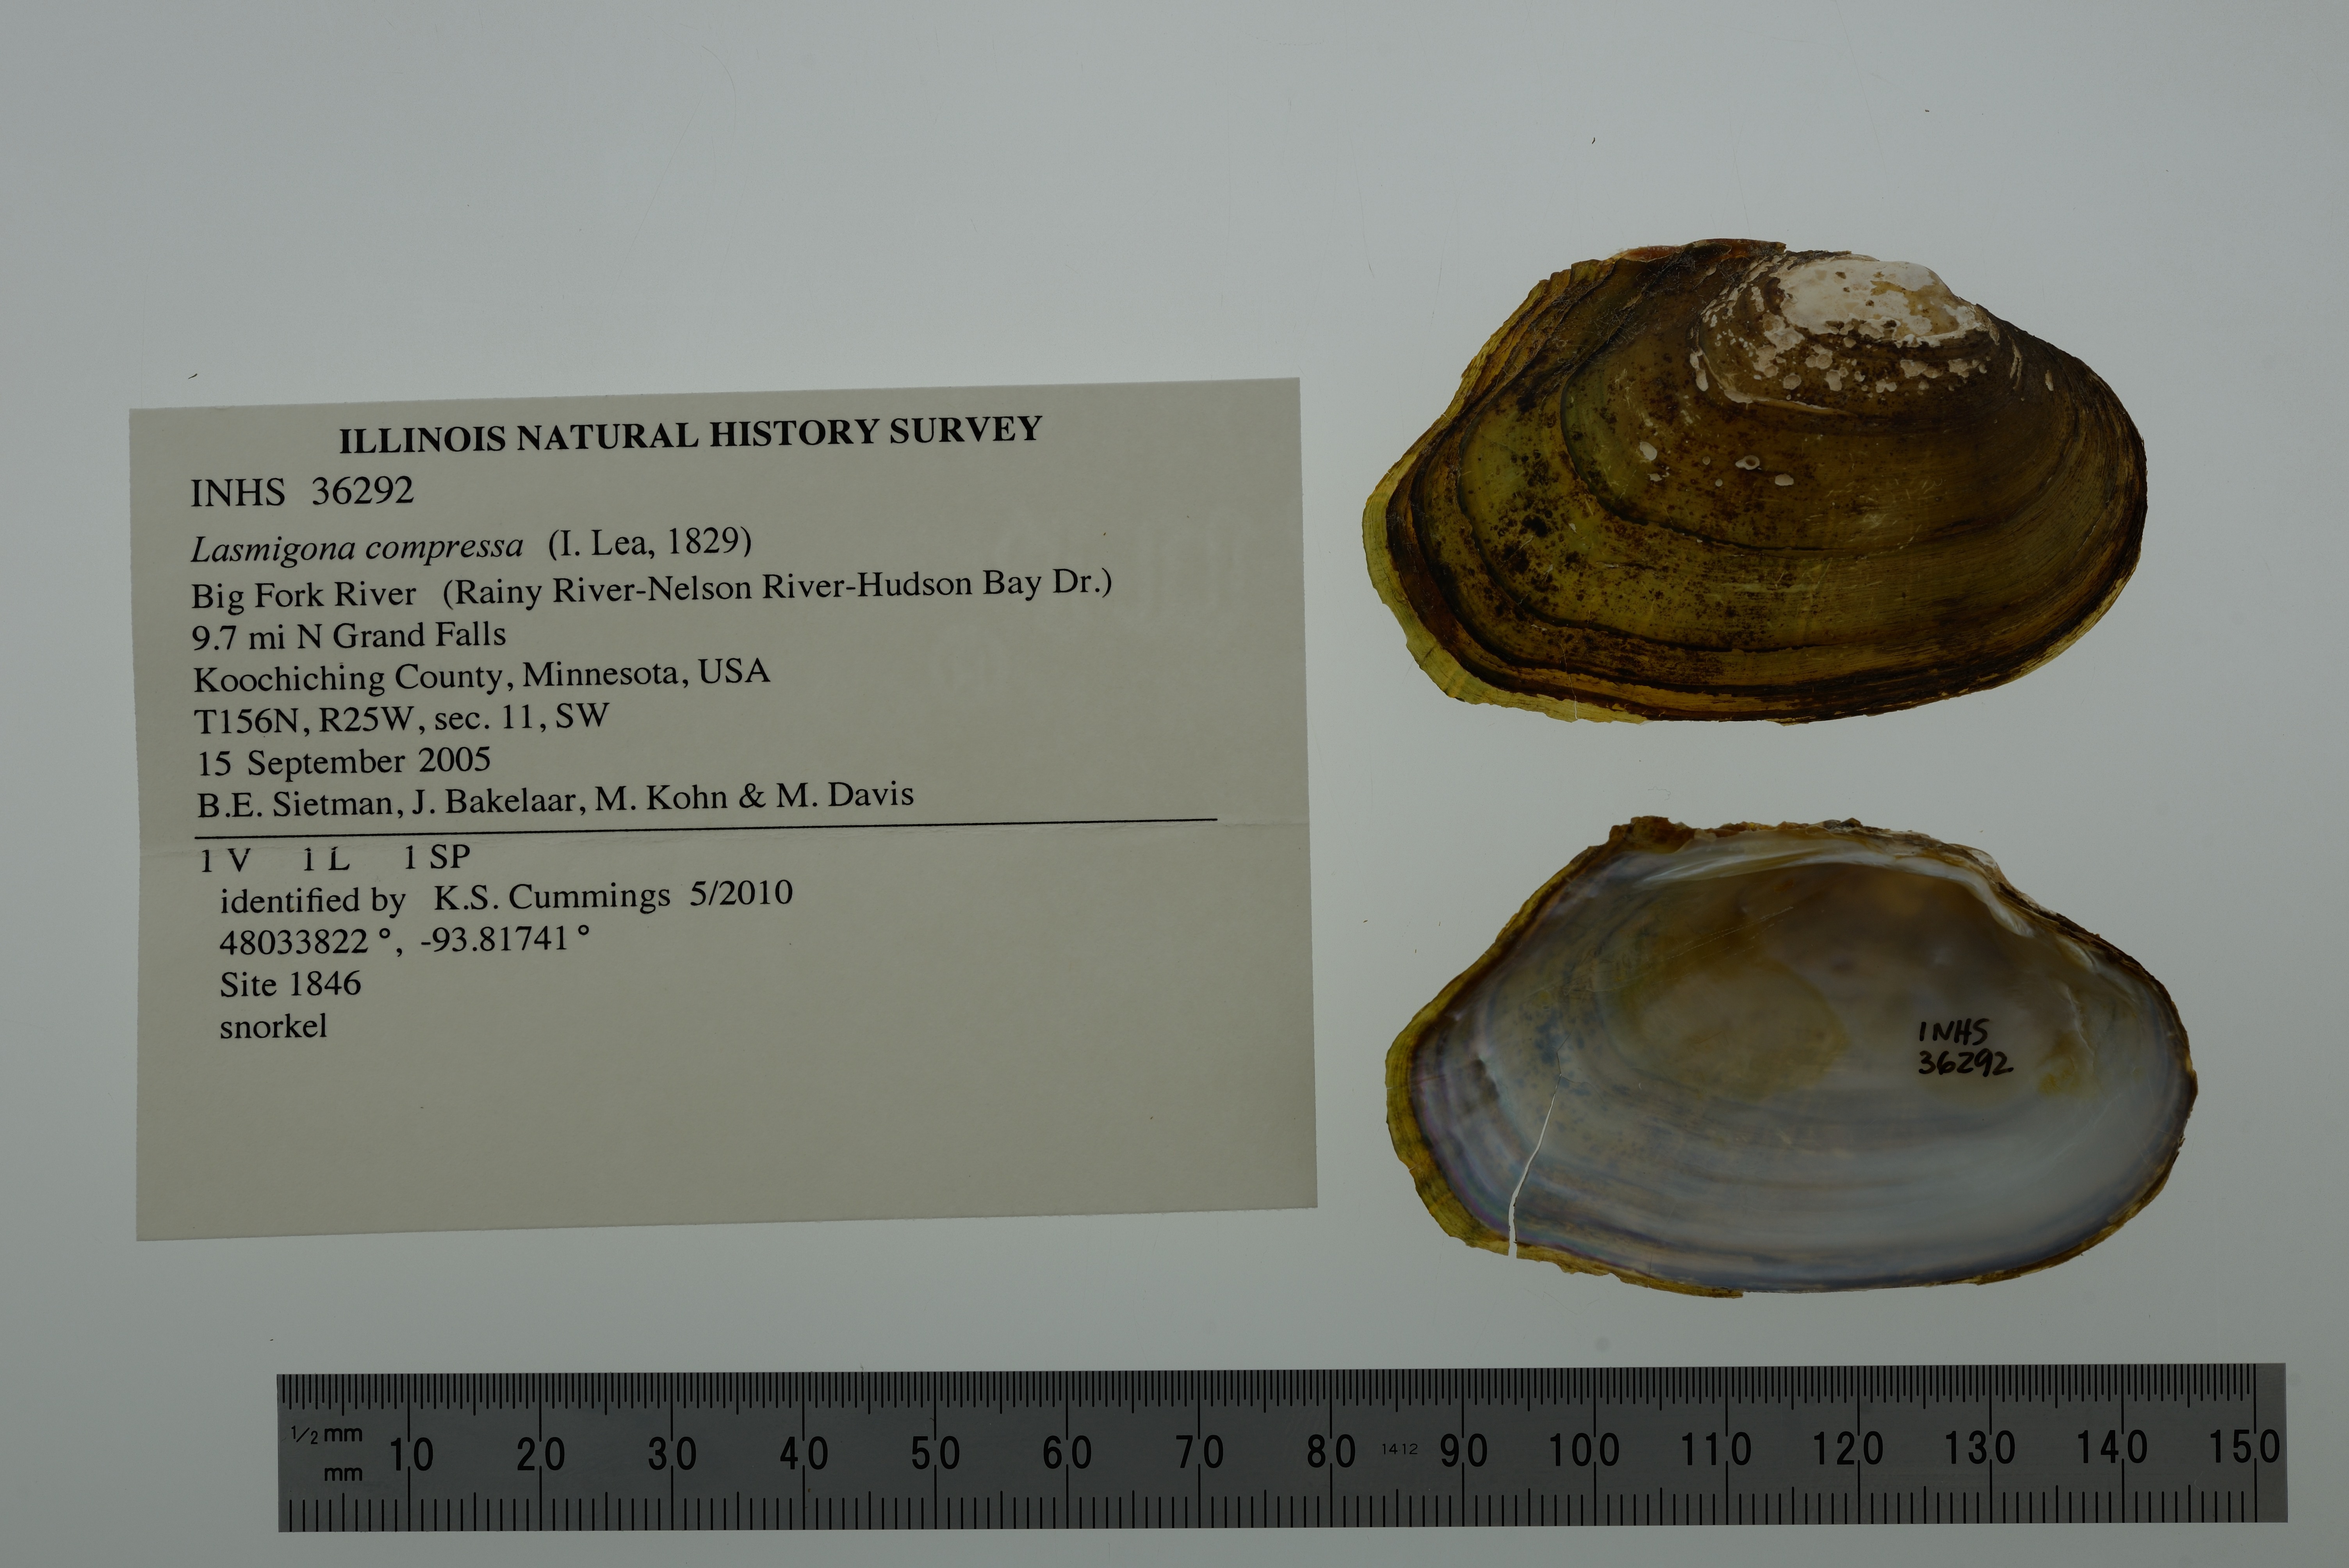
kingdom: Animalia
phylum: Mollusca
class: Bivalvia
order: Unionida
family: Unionidae
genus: Lasmigona
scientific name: Lasmigona compressa
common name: Creek heelsplitter
